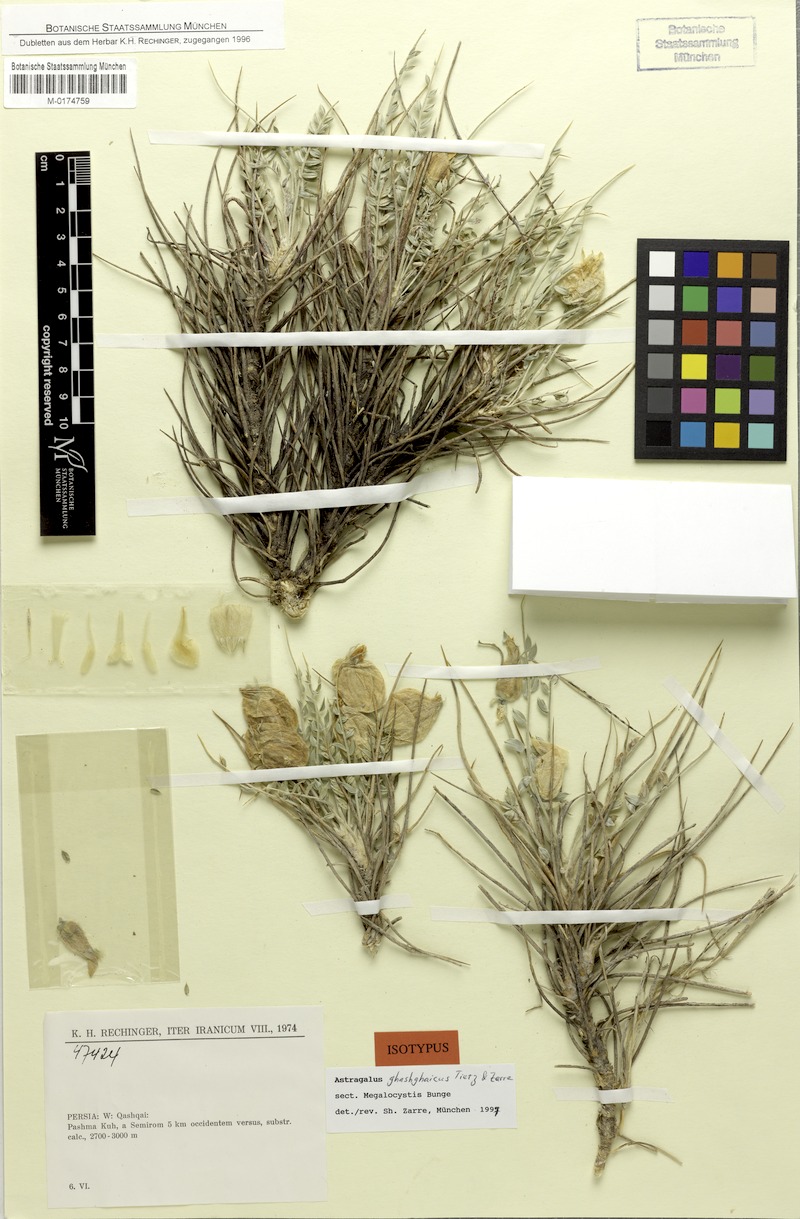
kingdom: Plantae
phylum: Tracheophyta
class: Magnoliopsida
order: Fabales
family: Fabaceae
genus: Astragalus
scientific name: Astragalus ghashghaicus
